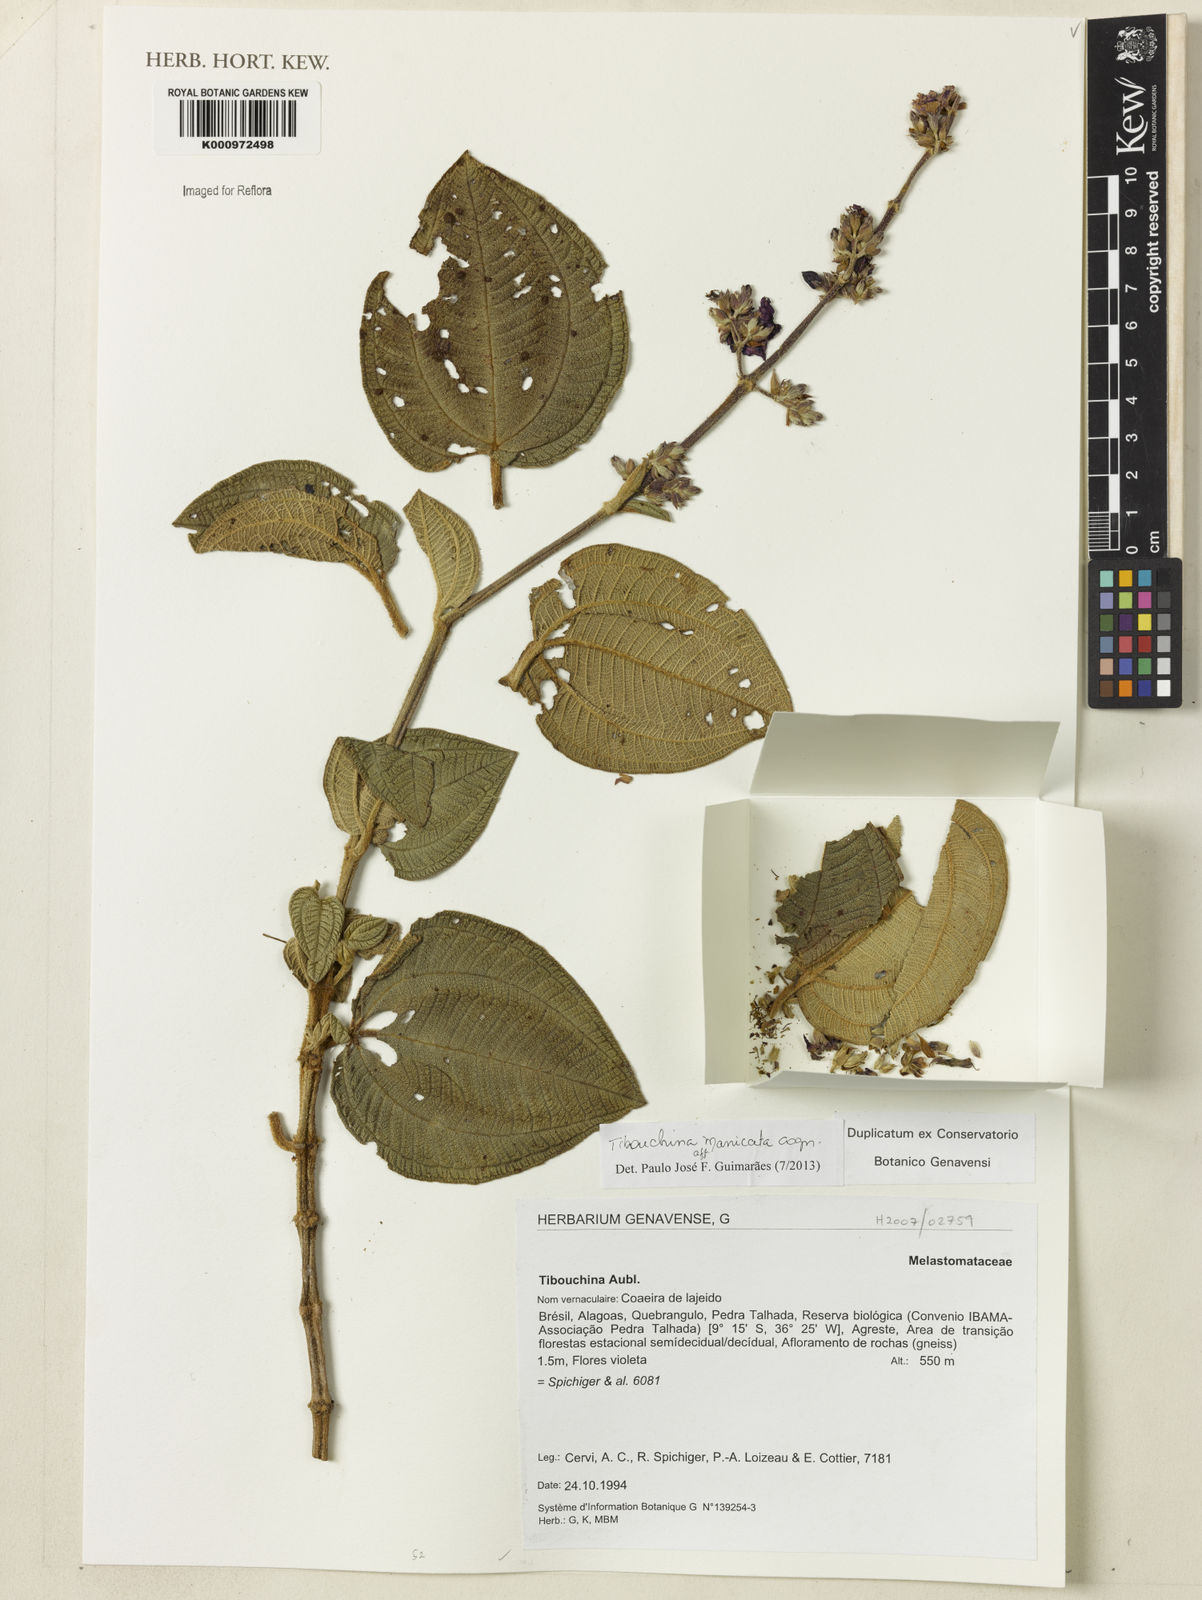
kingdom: Plantae
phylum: Tracheophyta
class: Magnoliopsida
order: Myrtales
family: Melastomataceae
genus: Pleroma
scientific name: Pleroma manicatum
